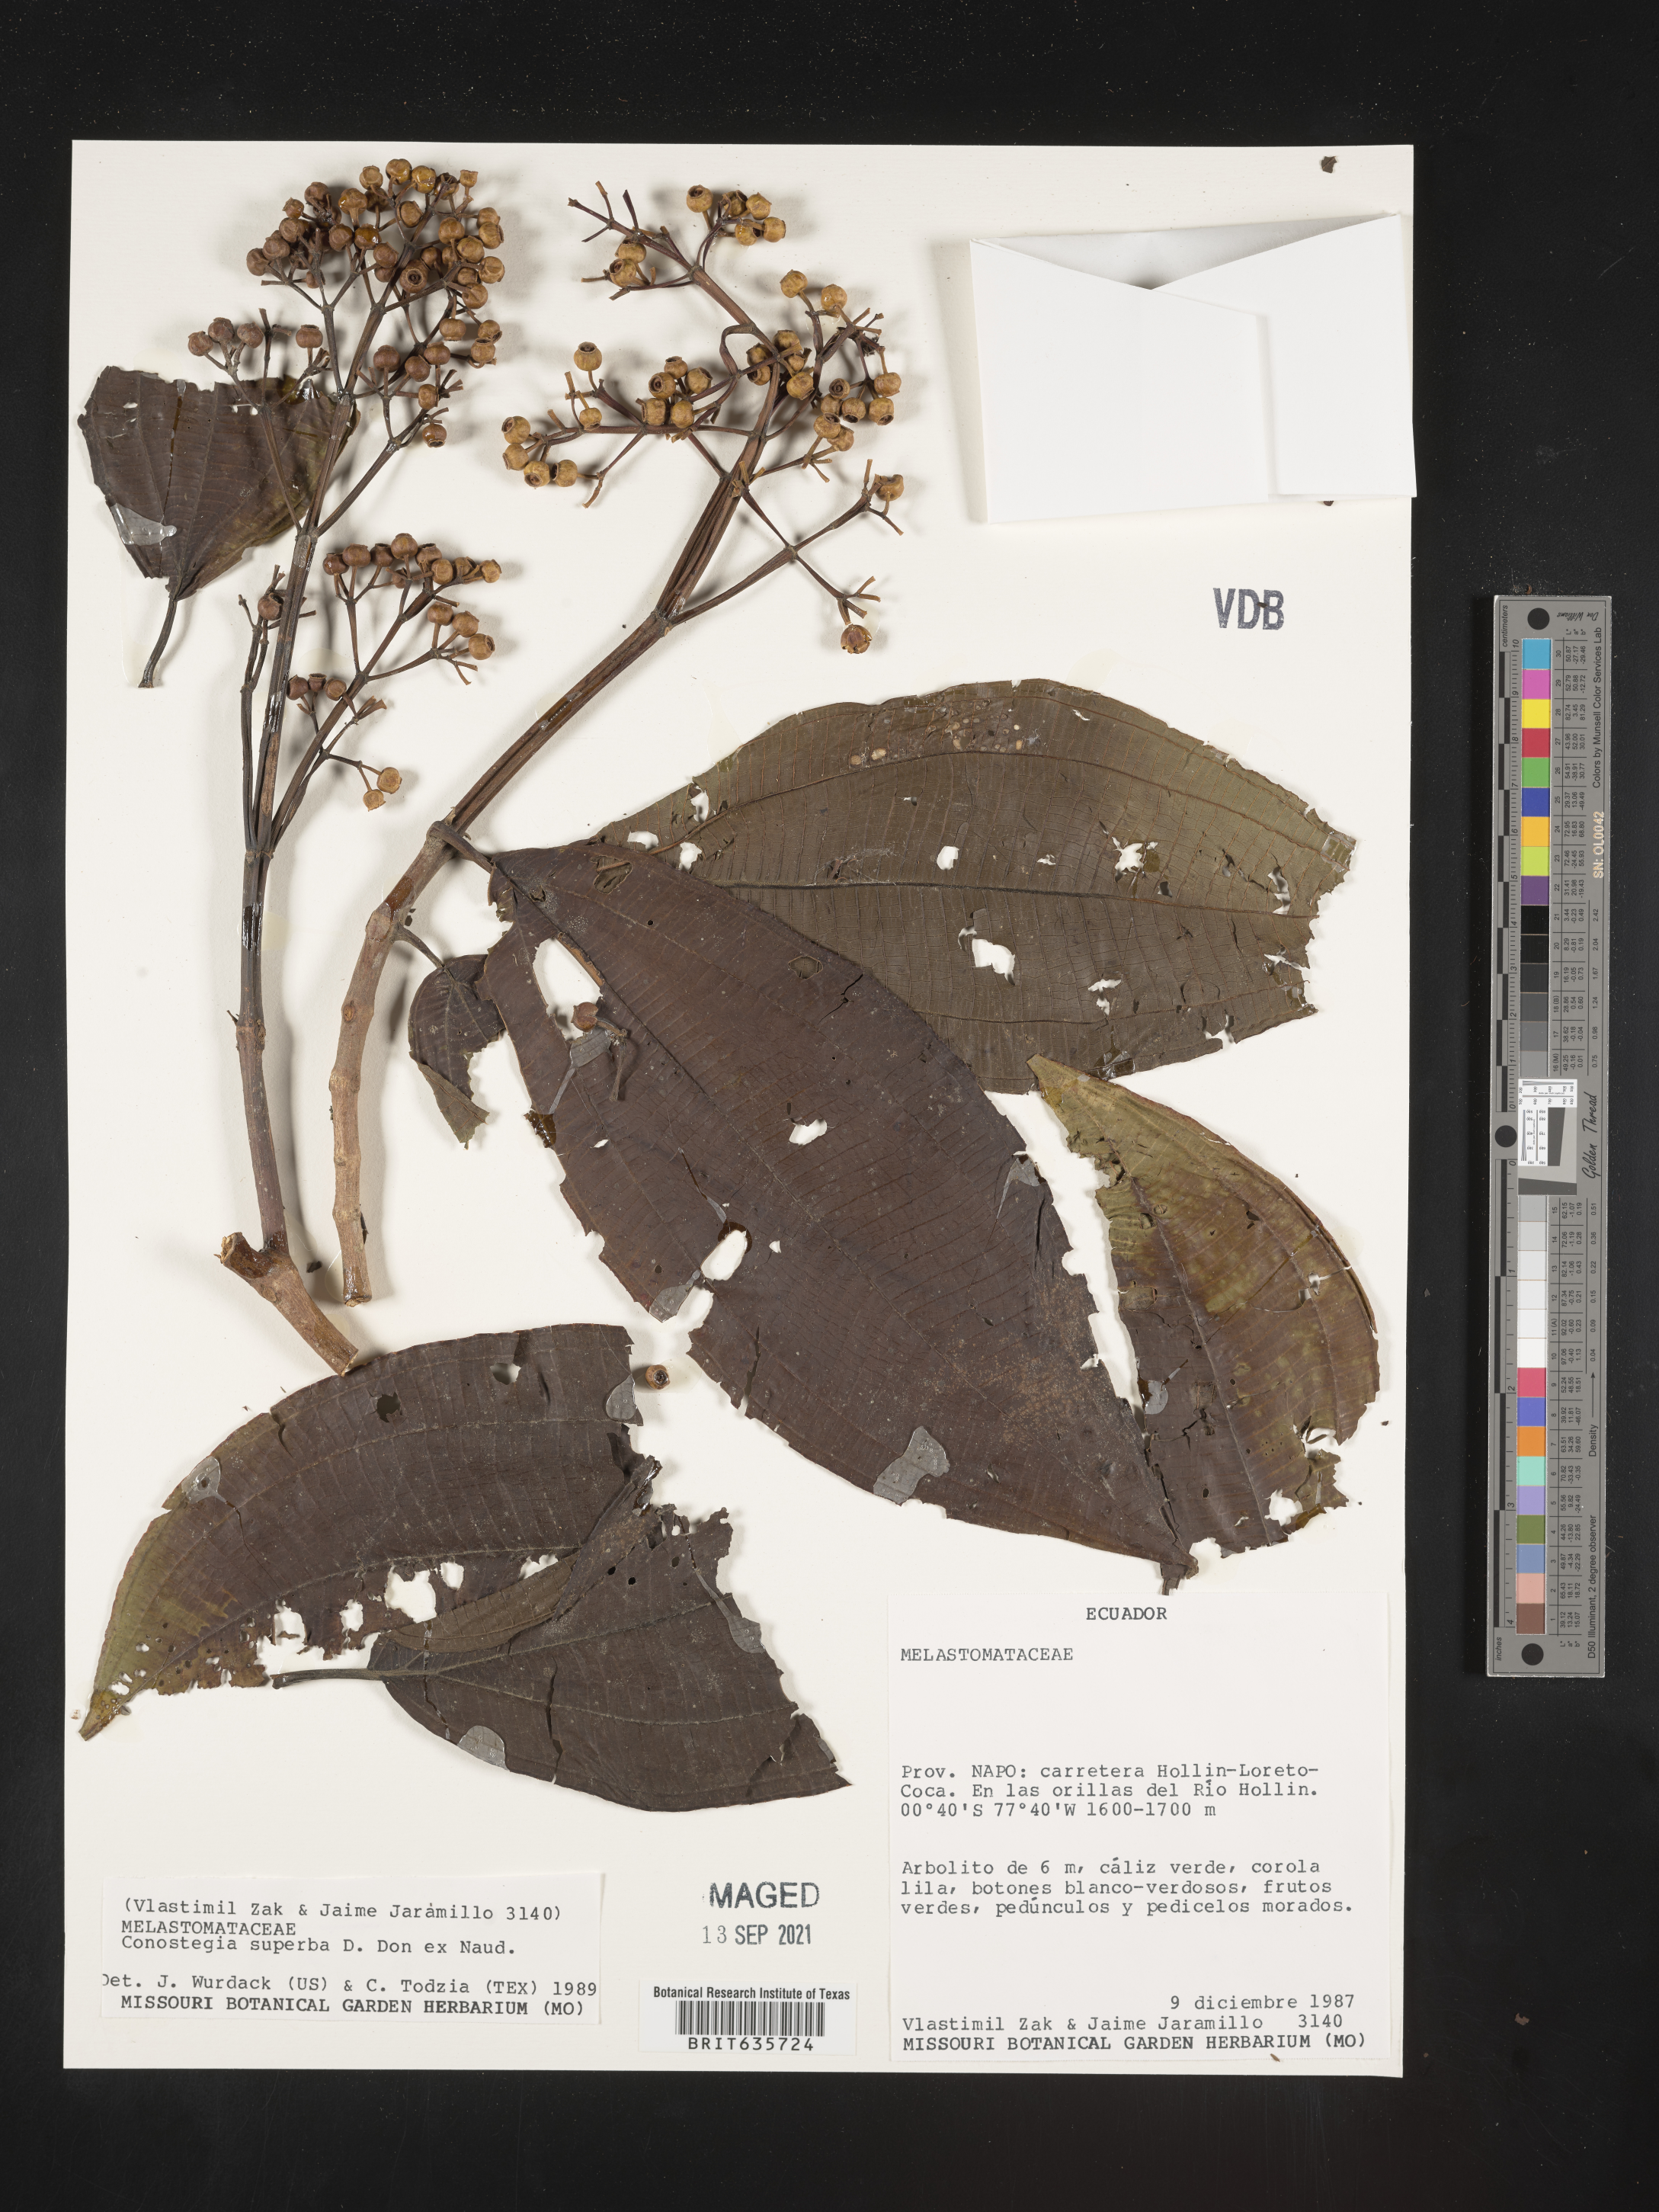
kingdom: Plantae
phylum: Tracheophyta
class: Magnoliopsida
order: Myrtales
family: Melastomataceae
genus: Miconia
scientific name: Miconia
